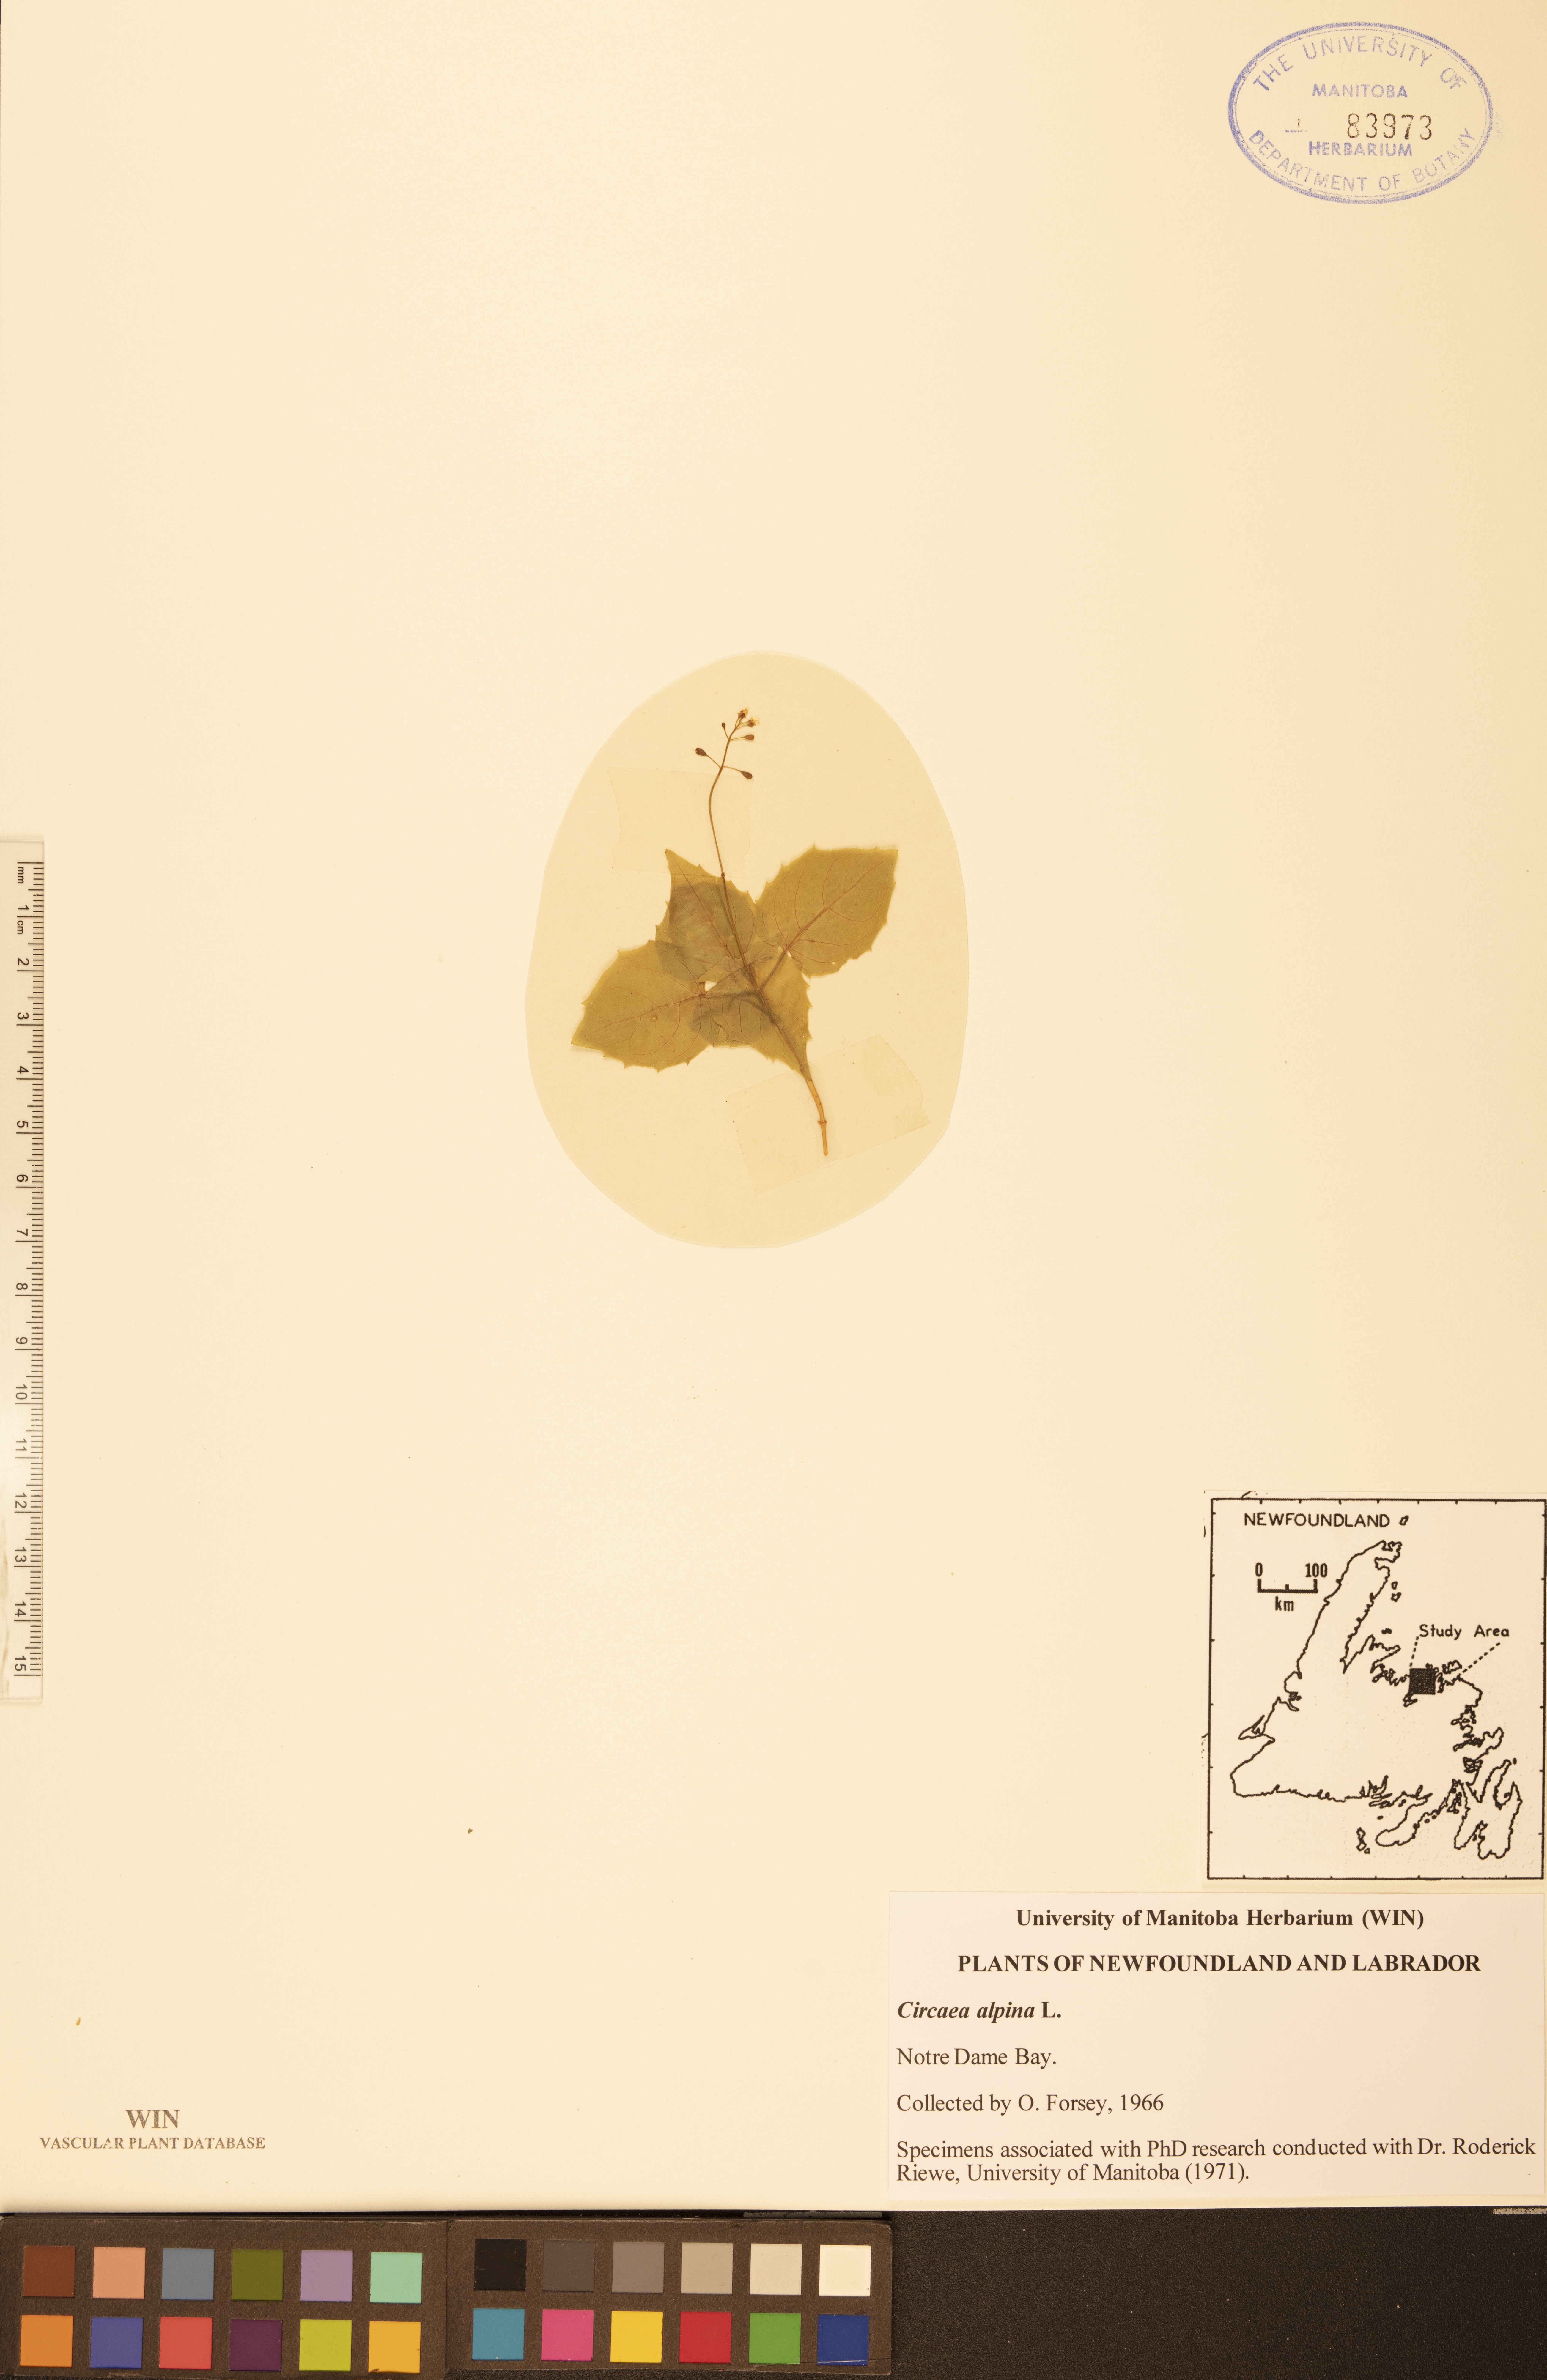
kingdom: Plantae
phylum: Tracheophyta
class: Magnoliopsida
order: Myrtales
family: Onagraceae
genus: Circaea
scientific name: Circaea alpina
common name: Alpine enchanter's-nightshade
